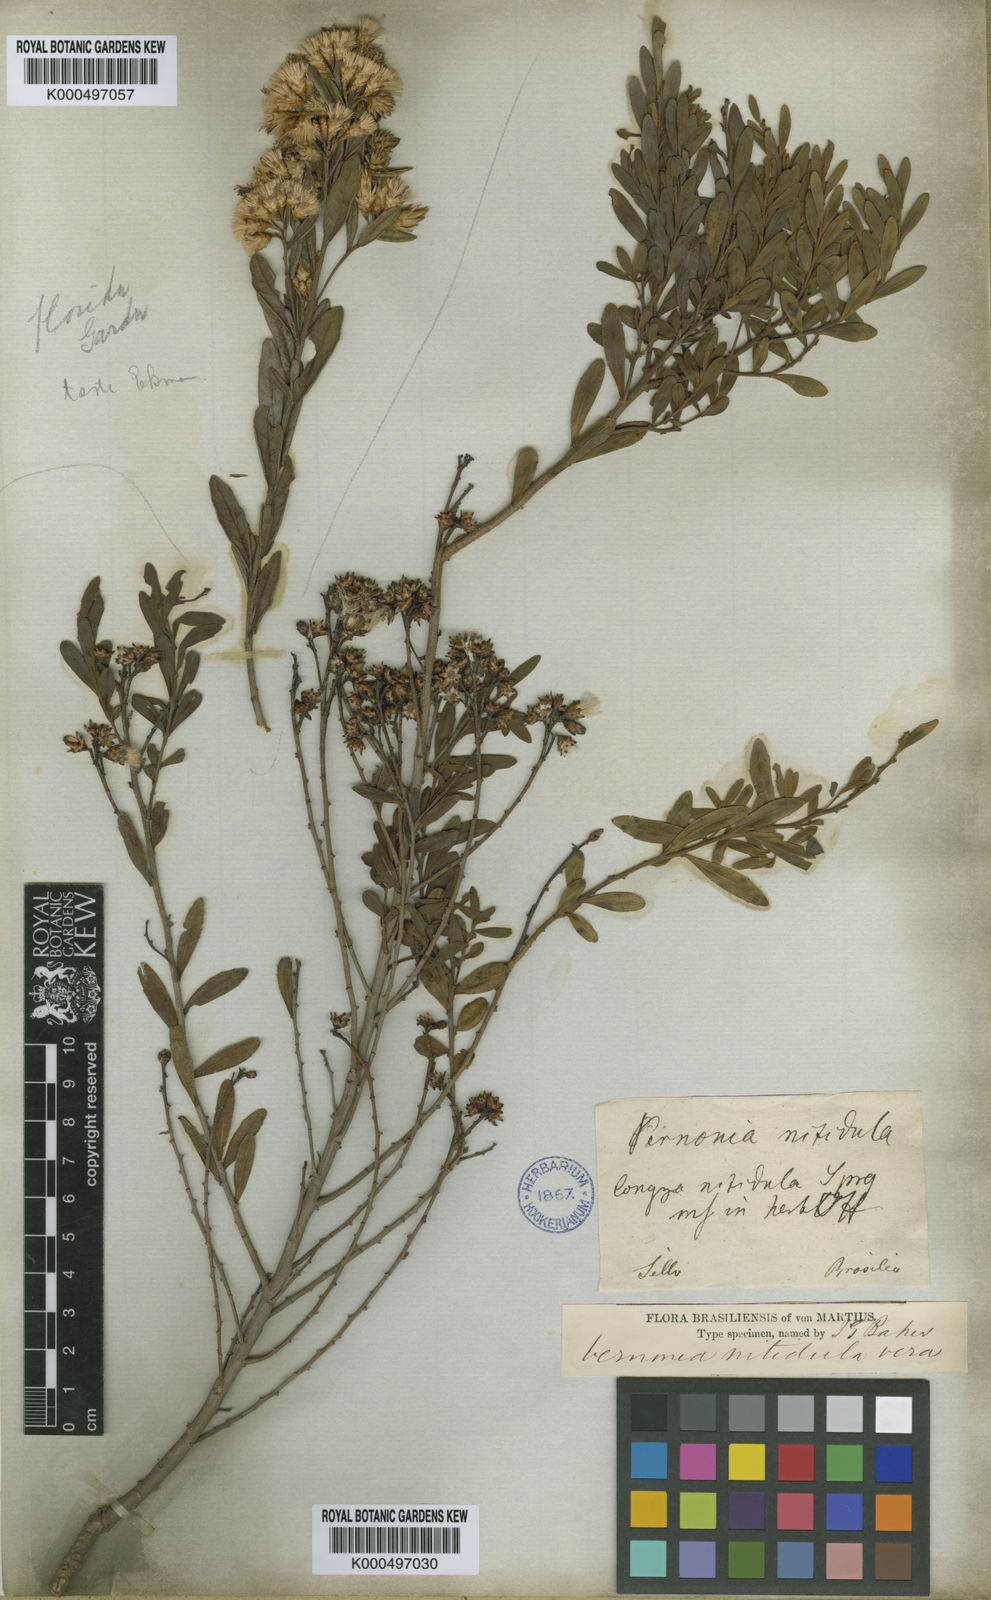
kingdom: Plantae
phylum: Tracheophyta
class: Magnoliopsida
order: Asterales
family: Asteraceae
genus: Vernonanthura
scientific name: Vernonanthura montevidensis
